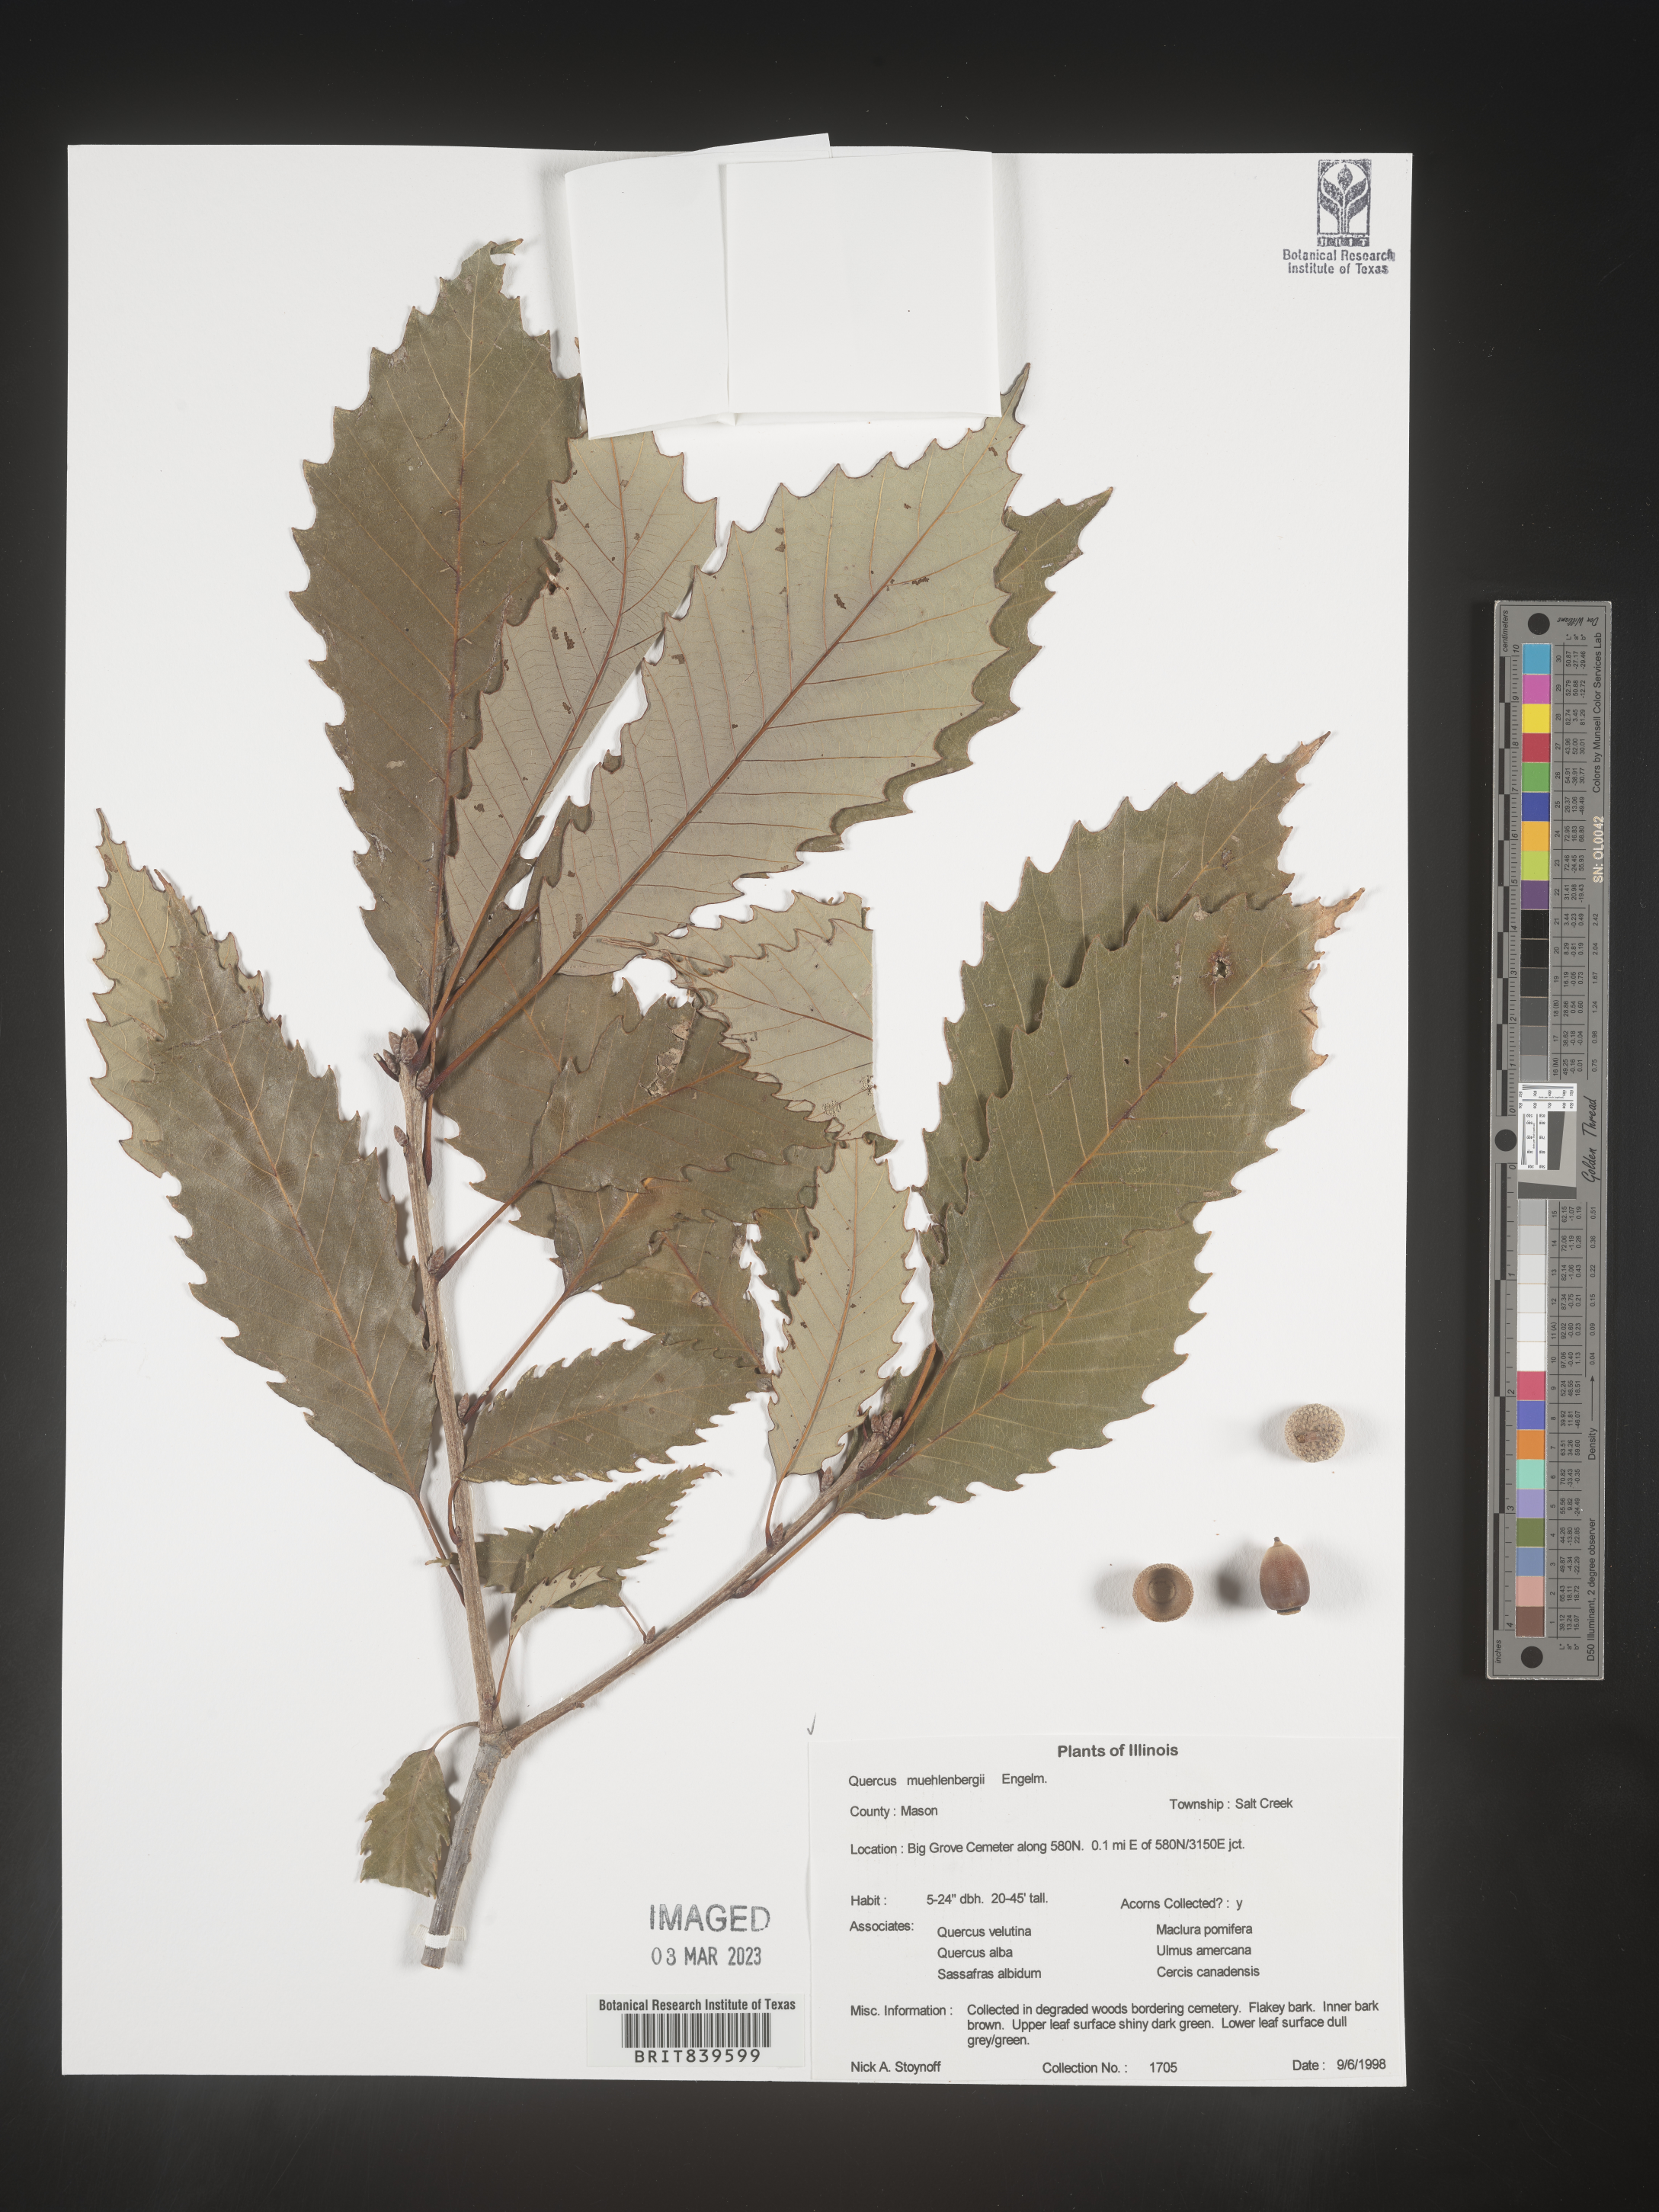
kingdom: Plantae
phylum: Tracheophyta
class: Magnoliopsida
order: Fagales
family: Fagaceae
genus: Quercus
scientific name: Quercus muehlenbergii
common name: Chinkapin oak
